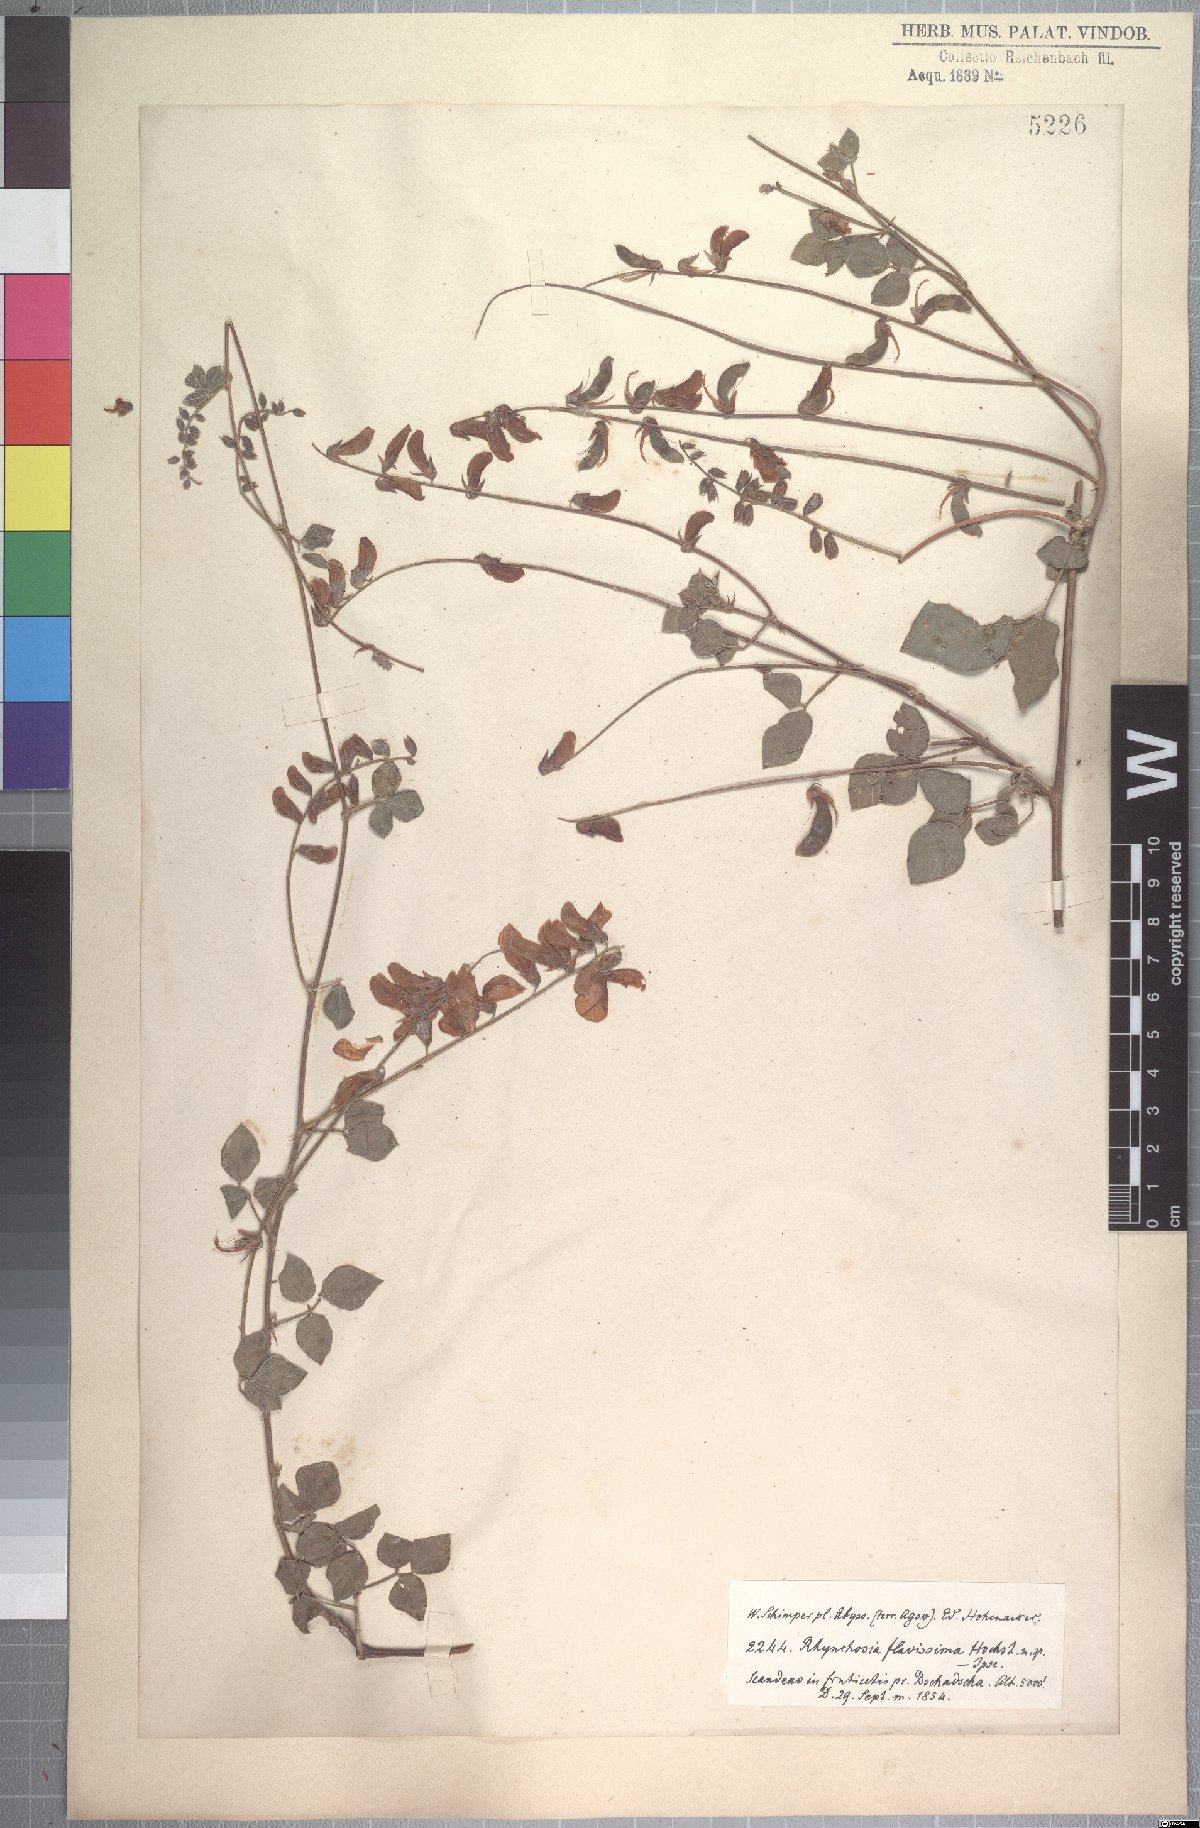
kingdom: Plantae
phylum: Tracheophyta
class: Magnoliopsida
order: Fabales
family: Fabaceae
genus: Rhynchosia
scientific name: Rhynchosia malacophylla
